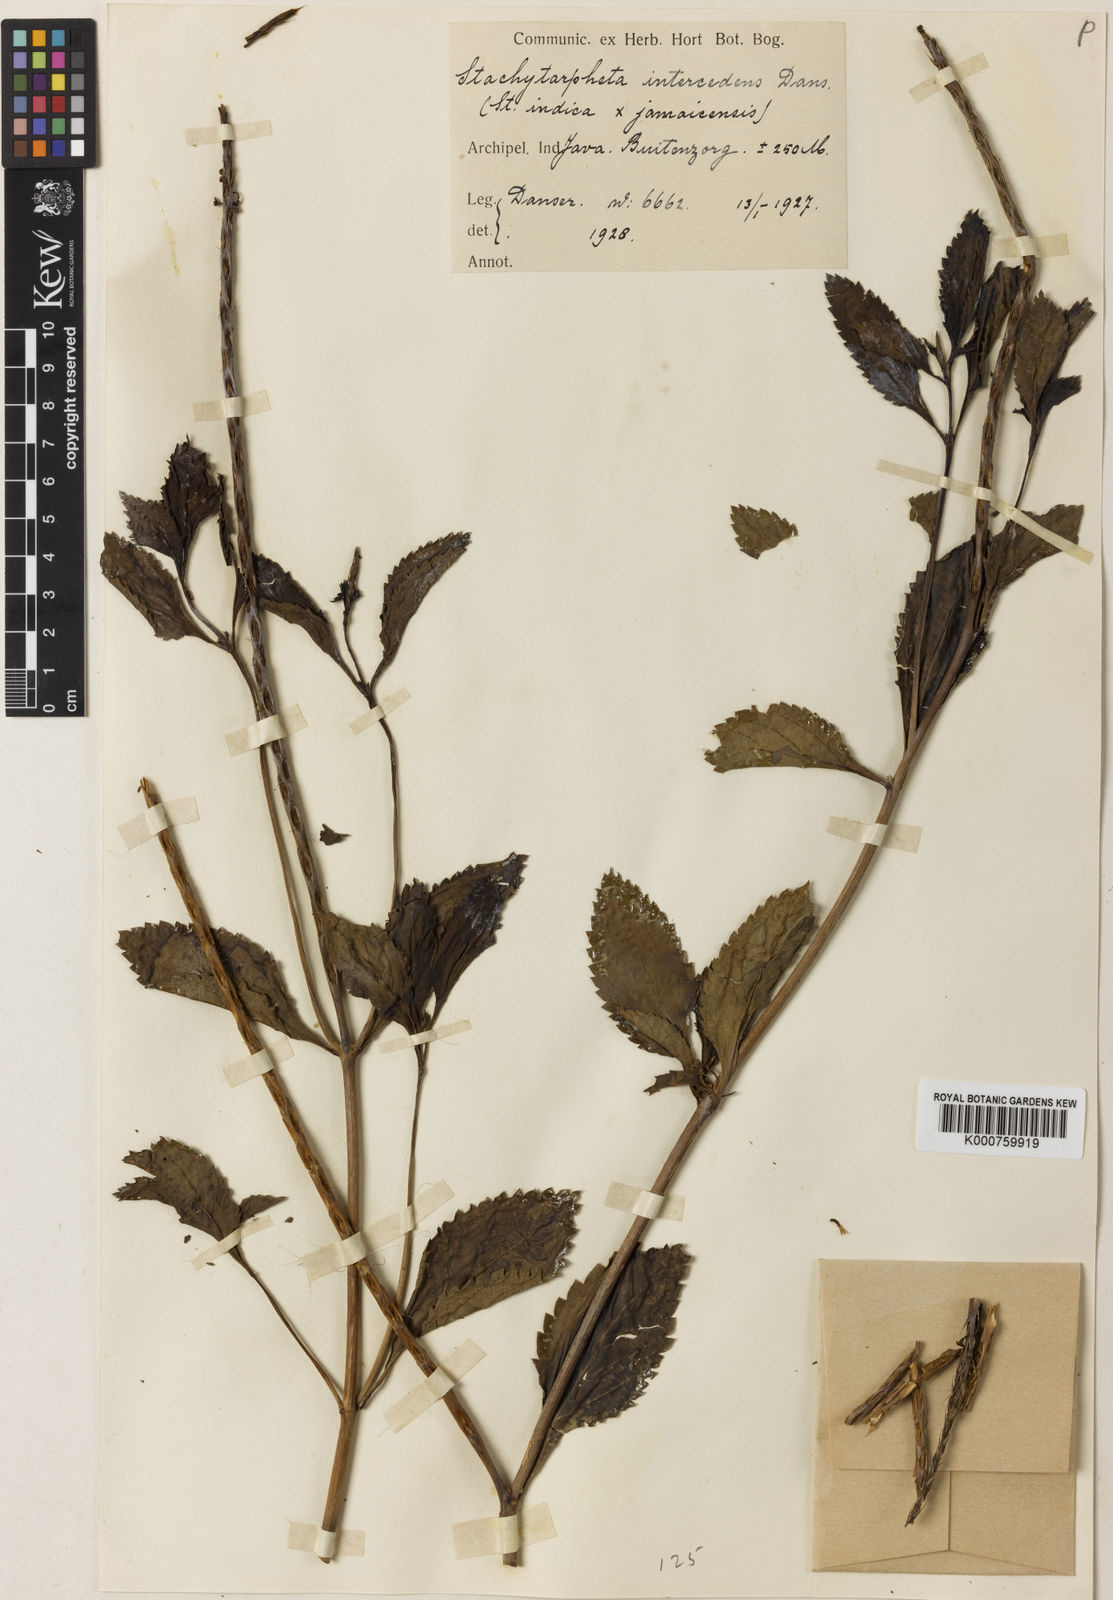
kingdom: Plantae
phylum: Tracheophyta
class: Magnoliopsida
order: Lamiales
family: Verbenaceae
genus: Stachytarpheta
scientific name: Stachytarpheta intercedens
